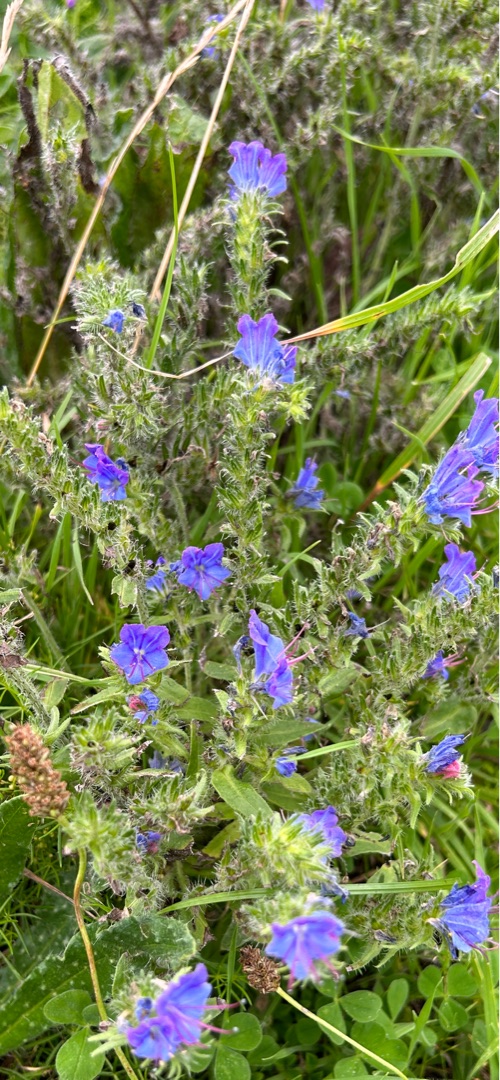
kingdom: Plantae
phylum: Tracheophyta
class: Magnoliopsida
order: Boraginales
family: Boraginaceae
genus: Echium
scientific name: Echium vulgare
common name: Slangehoved
